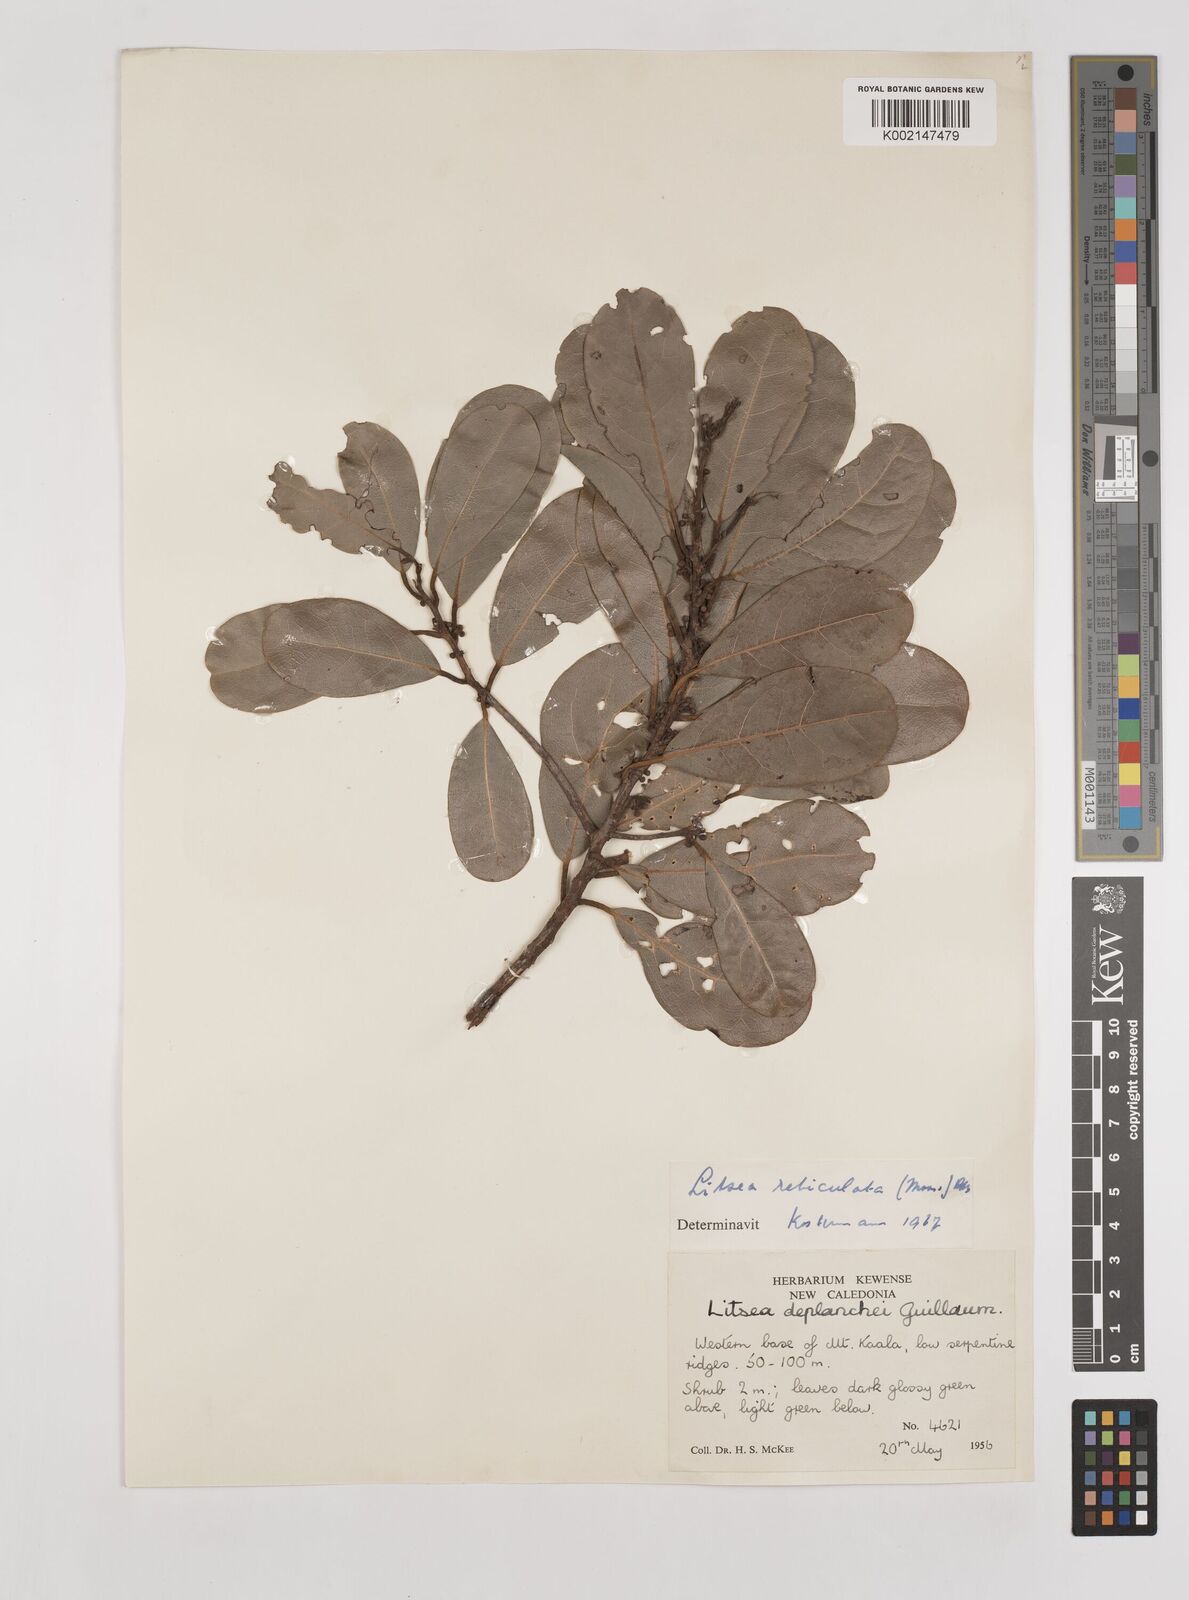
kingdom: Plantae
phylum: Tracheophyta
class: Magnoliopsida
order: Laurales
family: Lauraceae
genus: Litsea
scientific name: Litsea reticulata
